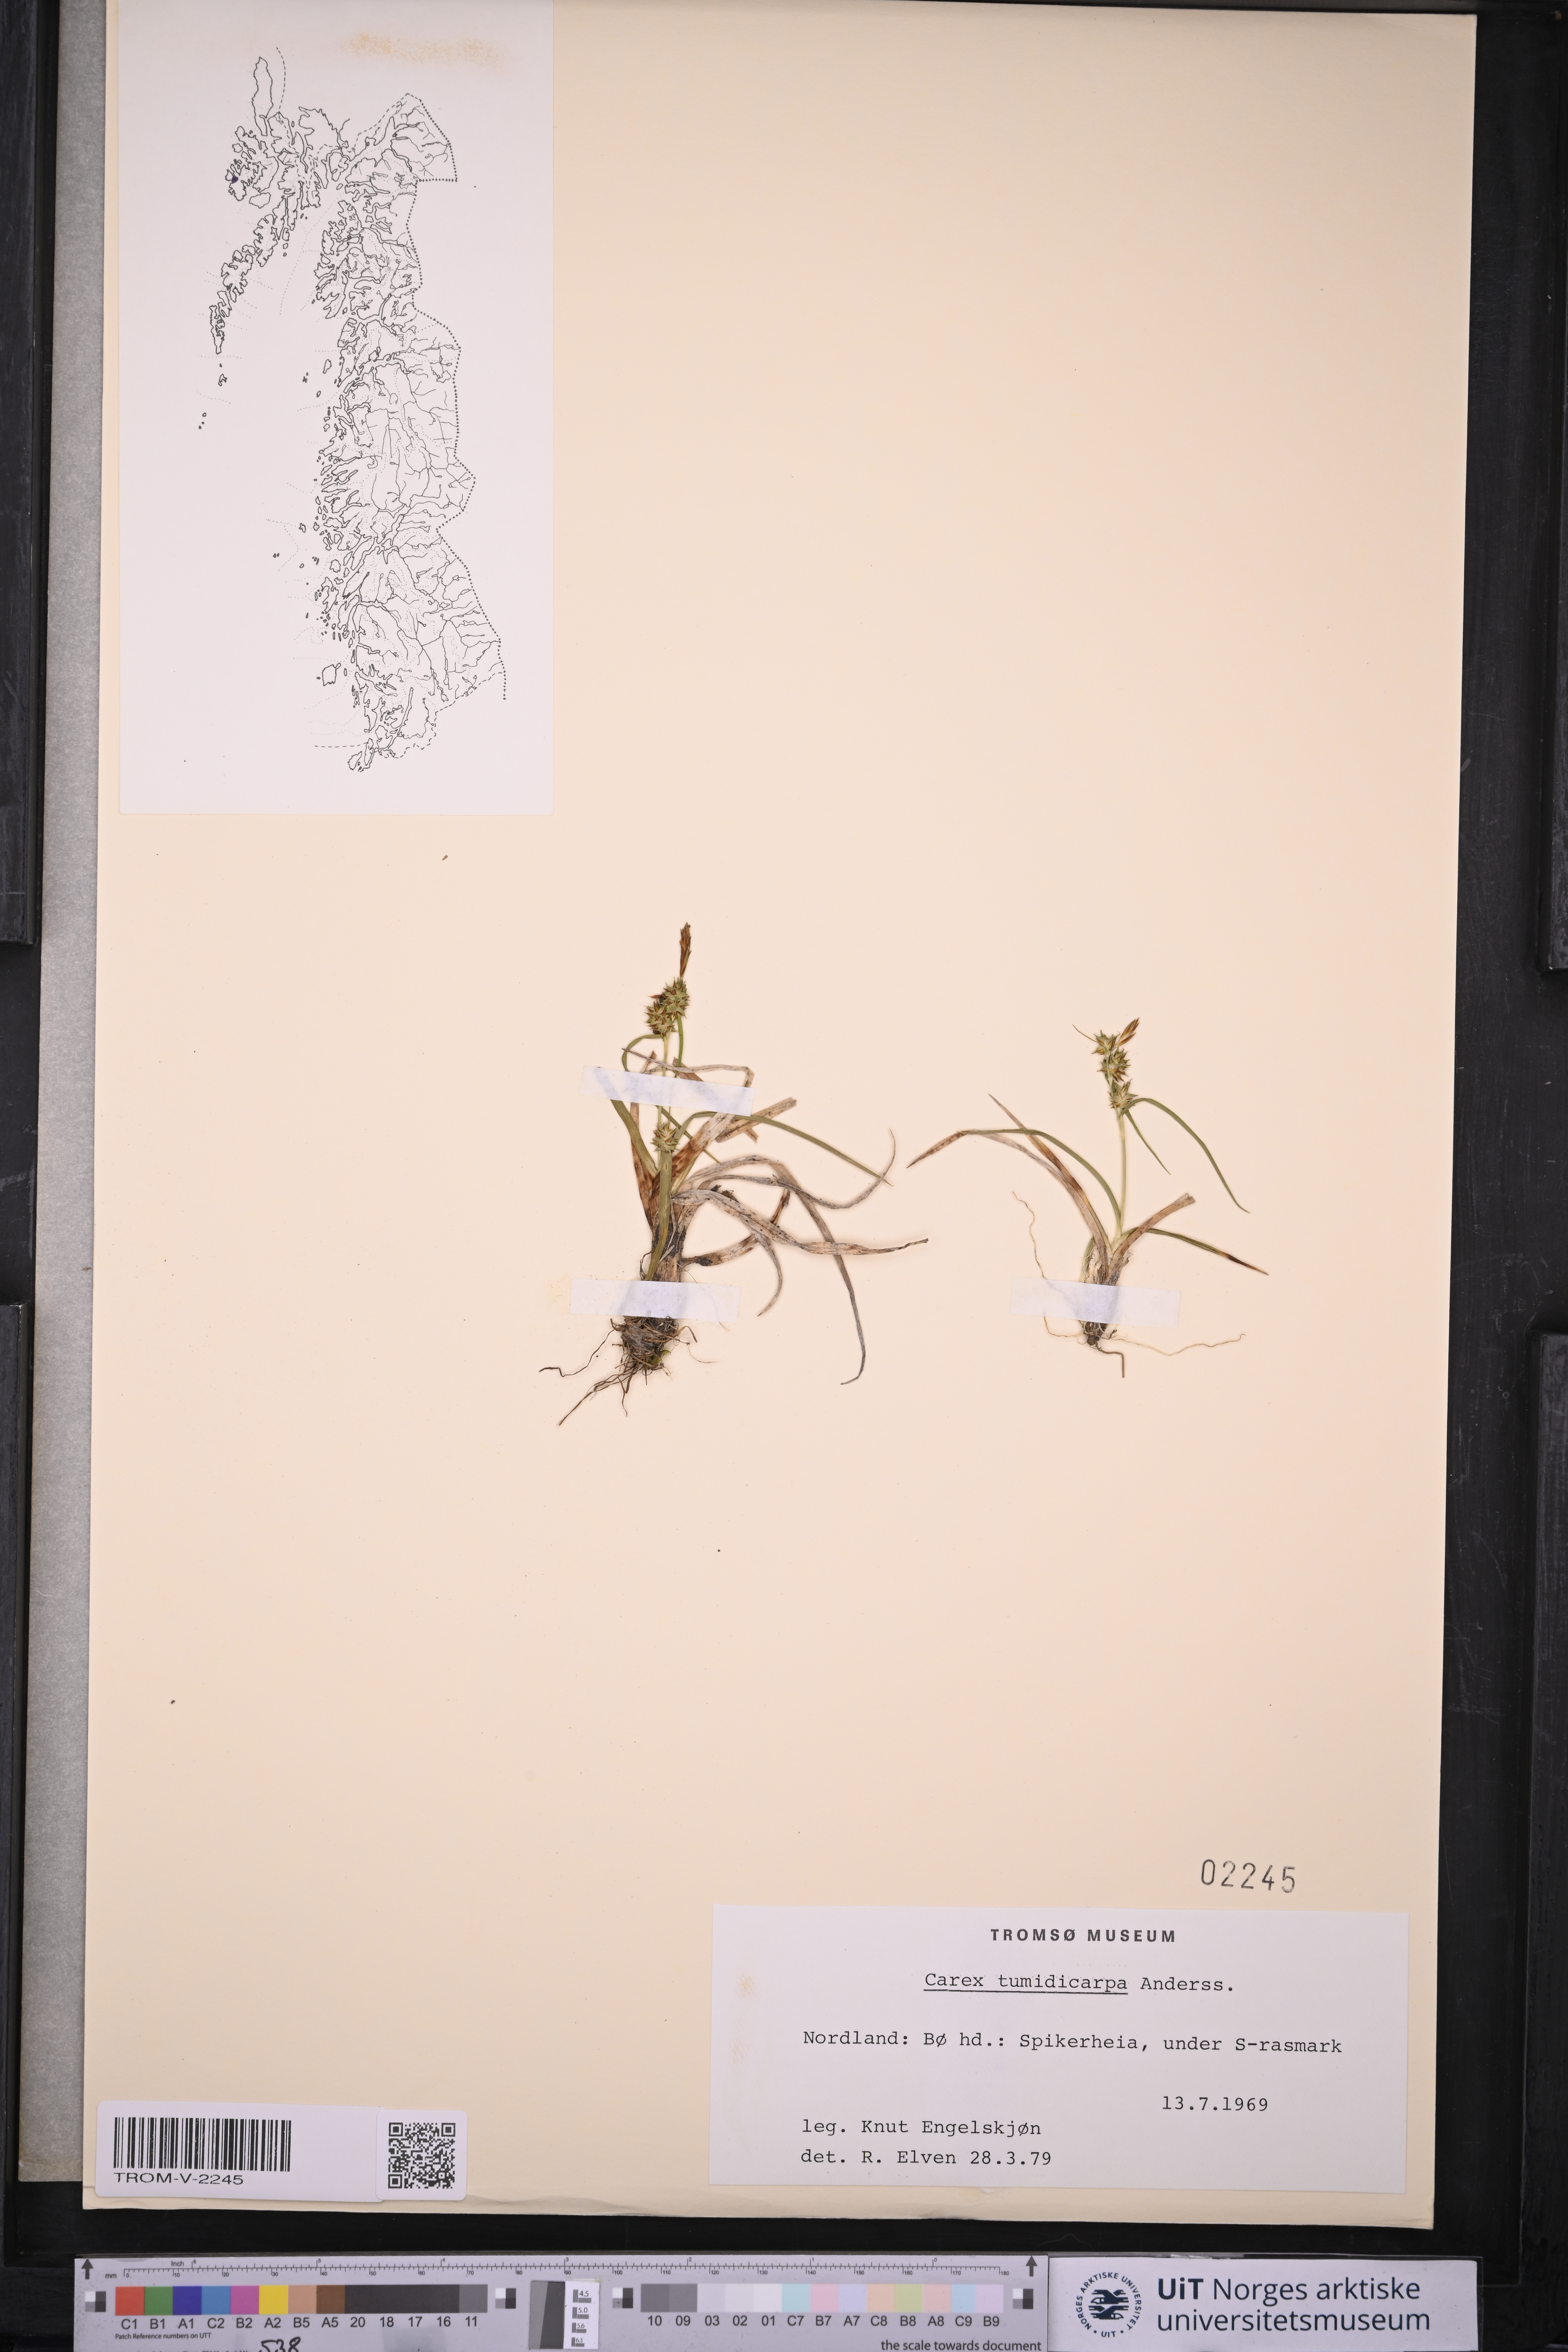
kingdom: Plantae
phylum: Tracheophyta
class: Liliopsida
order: Poales
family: Cyperaceae
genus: Carex
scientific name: Carex demissa
